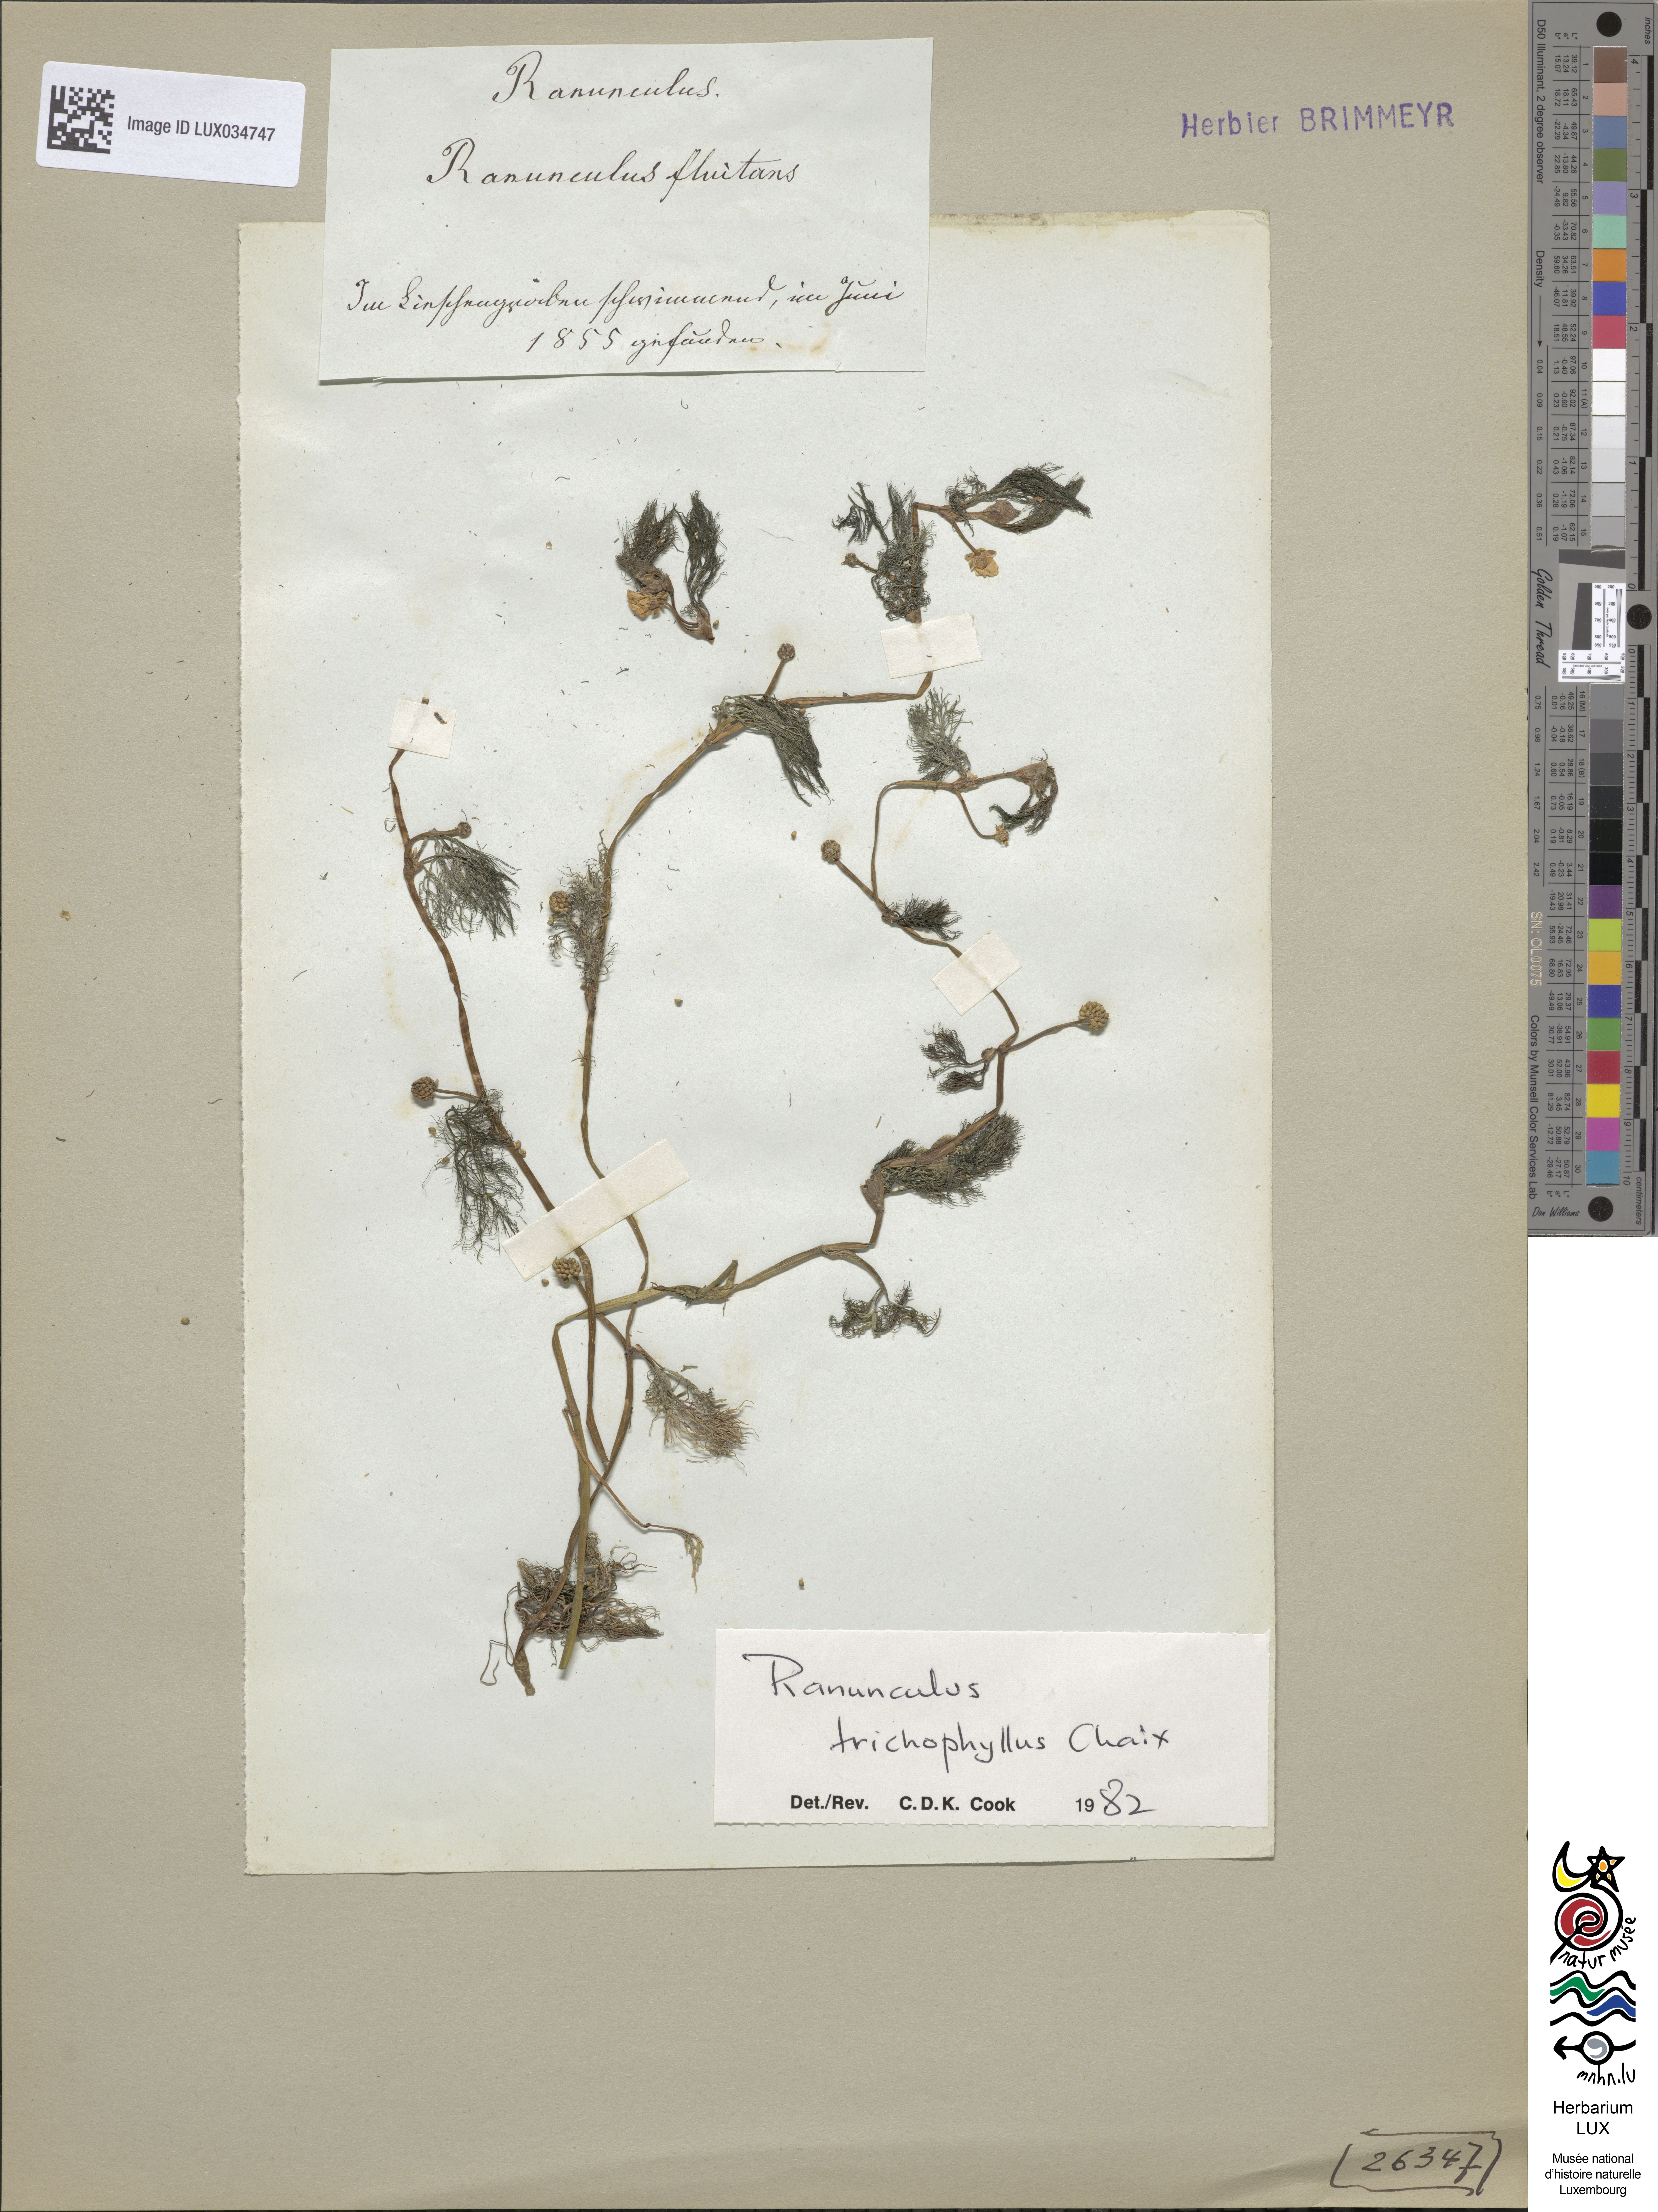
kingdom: Plantae
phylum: Tracheophyta
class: Magnoliopsida
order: Ranunculales
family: Ranunculaceae
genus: Ranunculus
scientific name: Ranunculus fluitans
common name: River water-crowfoot
